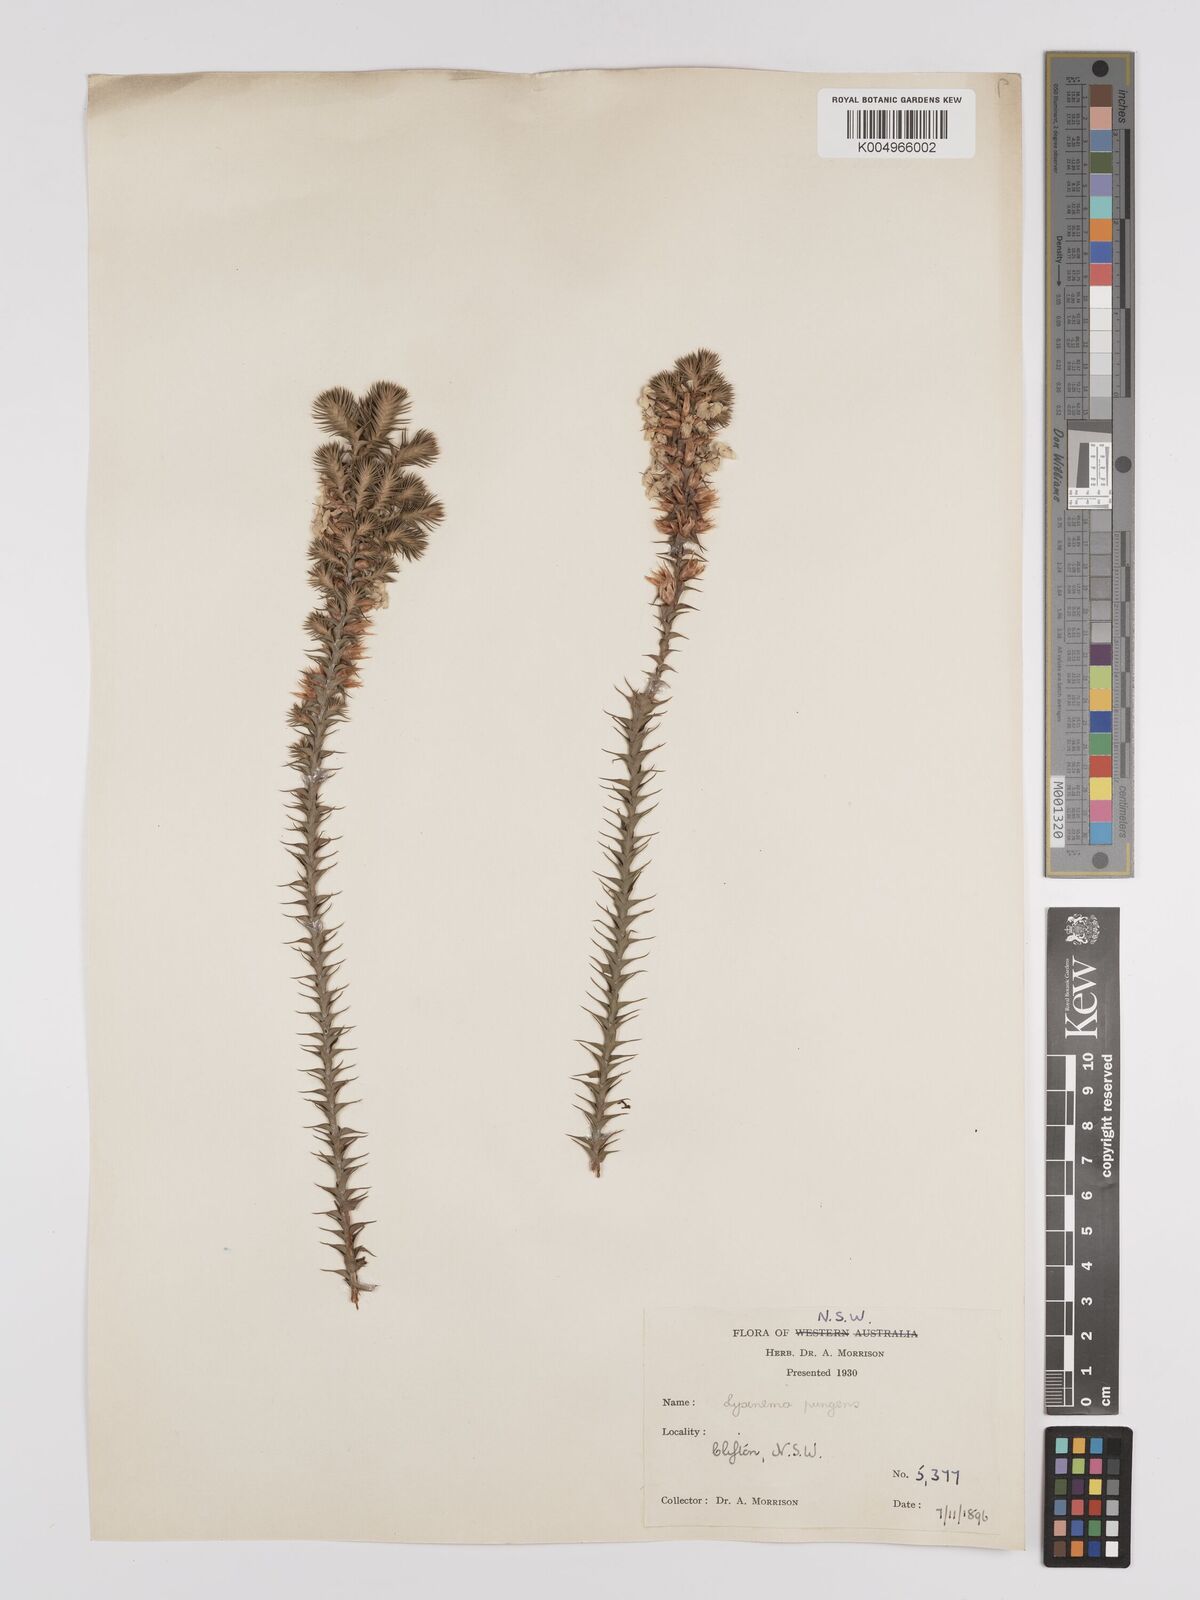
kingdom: Plantae
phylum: Tracheophyta
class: Magnoliopsida
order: Ericales
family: Ericaceae
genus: Woollsia
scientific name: Woollsia pungens
